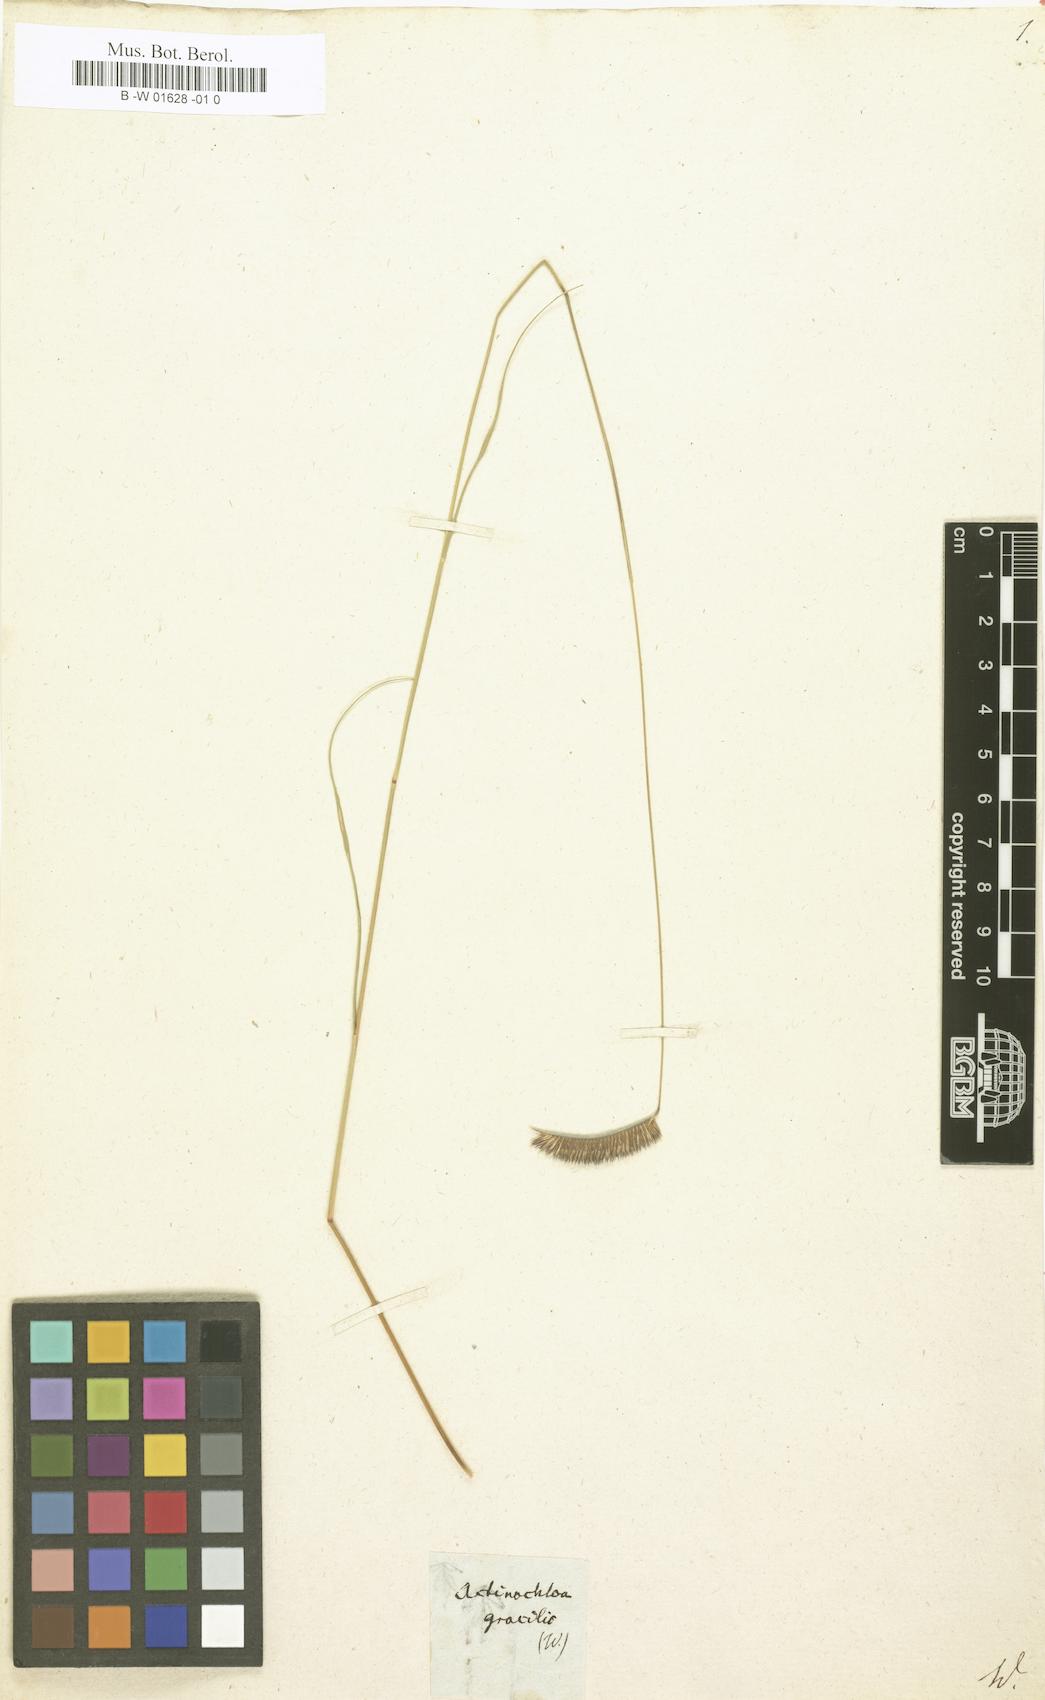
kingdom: Plantae
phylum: Tracheophyta
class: Liliopsida
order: Poales
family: Poaceae
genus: Bouteloua
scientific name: Bouteloua gracilis
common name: Blue grama
